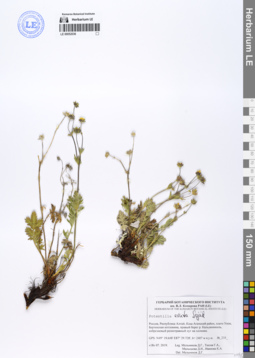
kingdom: Plantae
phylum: Tracheophyta
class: Magnoliopsida
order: Rosales
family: Rosaceae
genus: Potentilla
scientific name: Potentilla exuta
